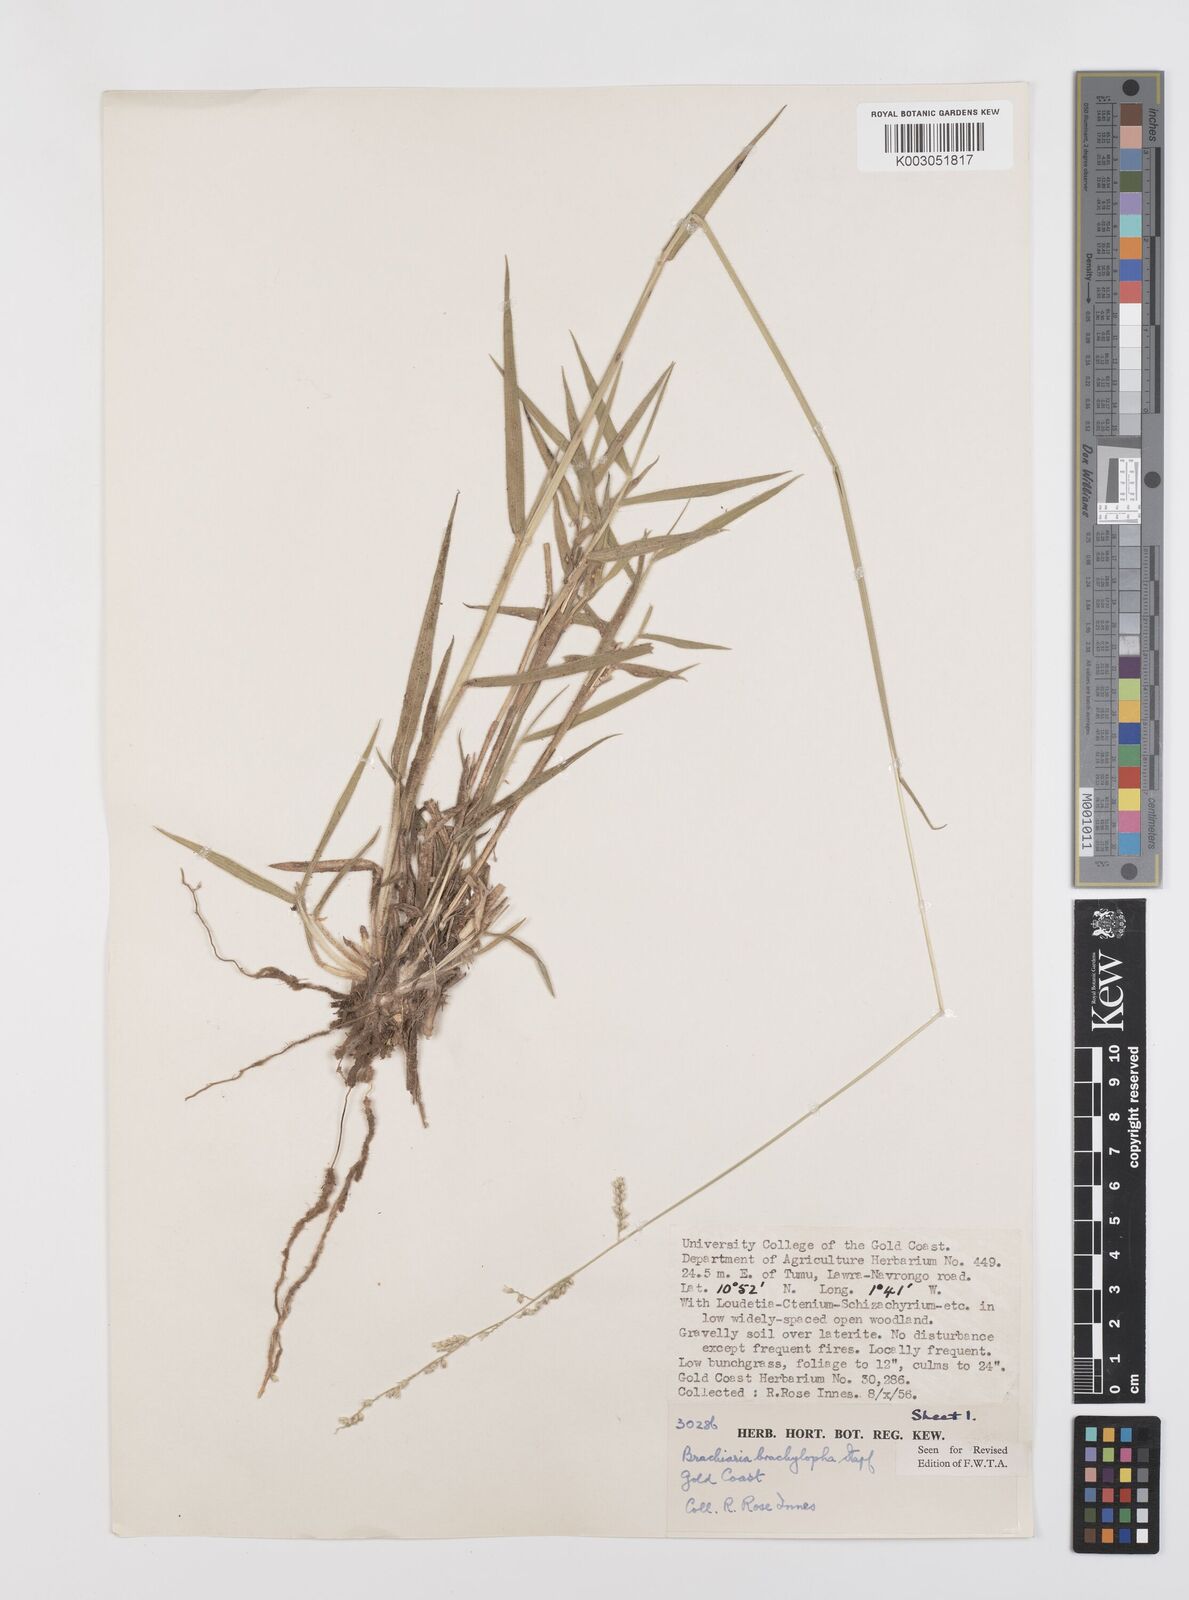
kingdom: Plantae
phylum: Tracheophyta
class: Liliopsida
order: Poales
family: Poaceae
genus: Urochloa
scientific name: Urochloa serrata
